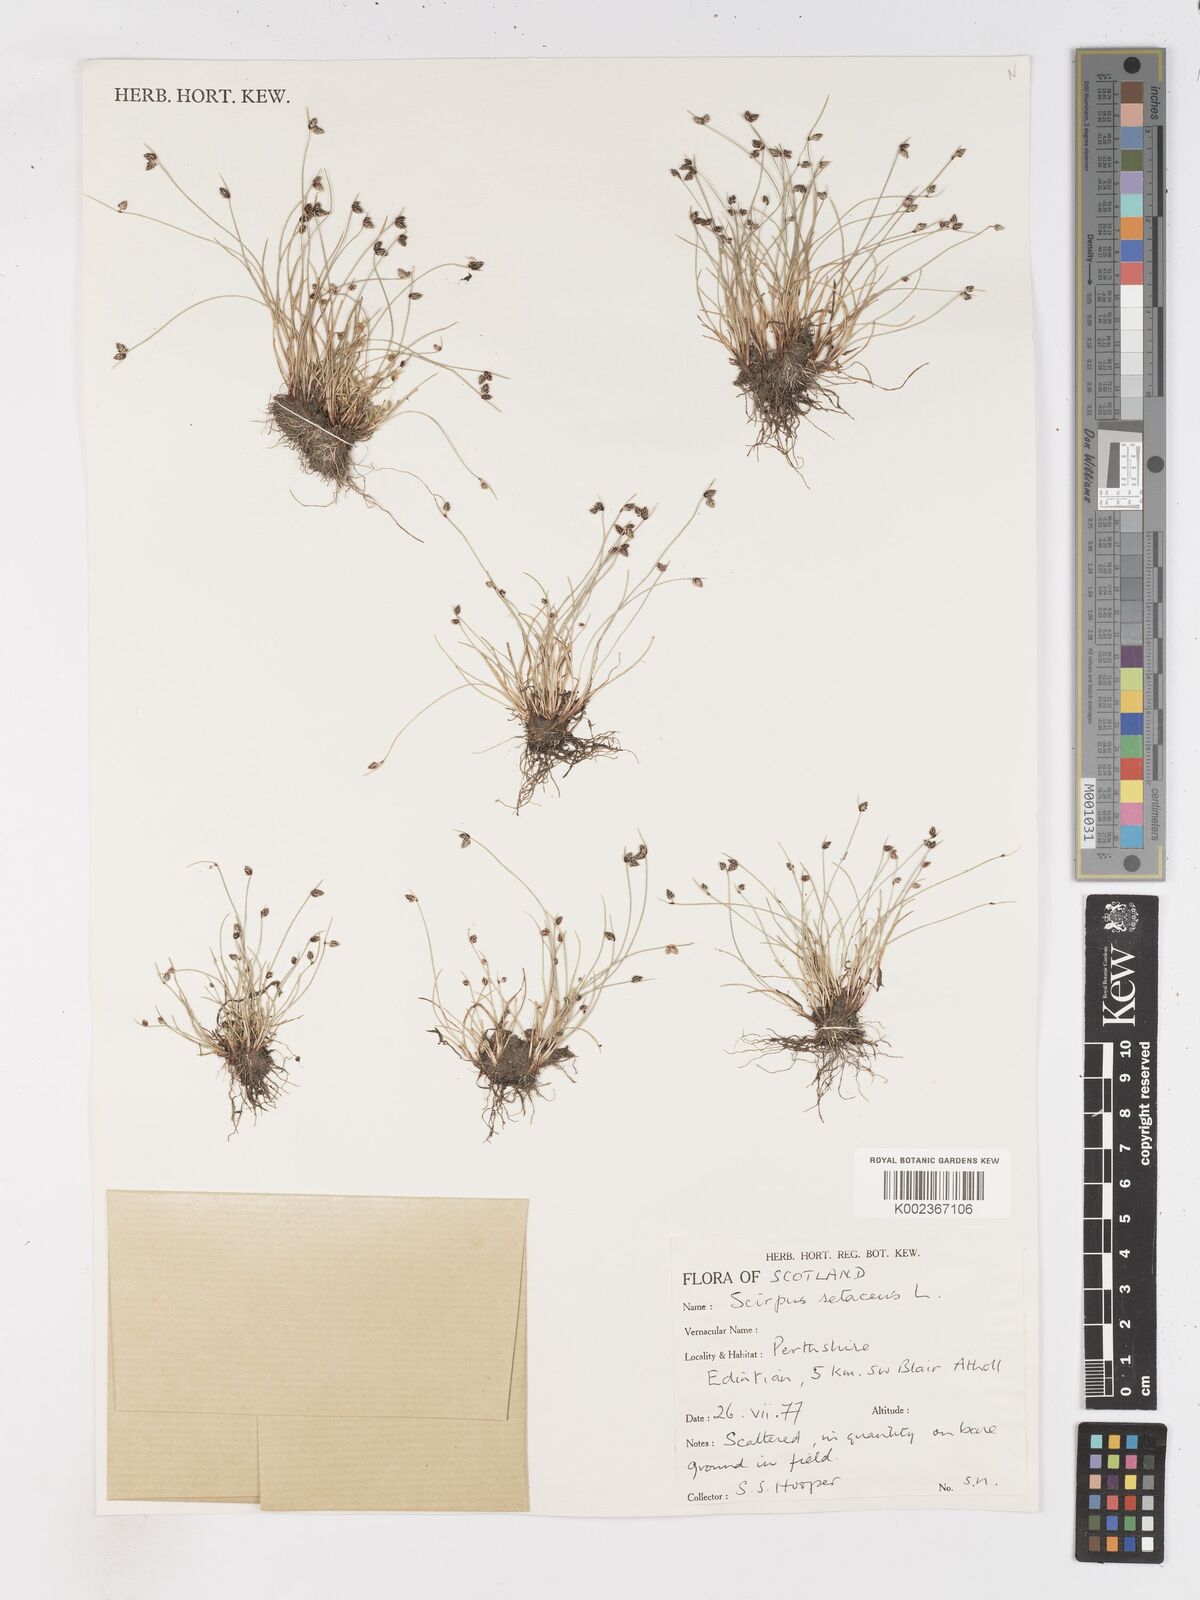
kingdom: Plantae
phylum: Tracheophyta
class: Liliopsida
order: Poales
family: Cyperaceae
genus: Isolepis
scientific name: Isolepis setacea
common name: Bristle club-rush
